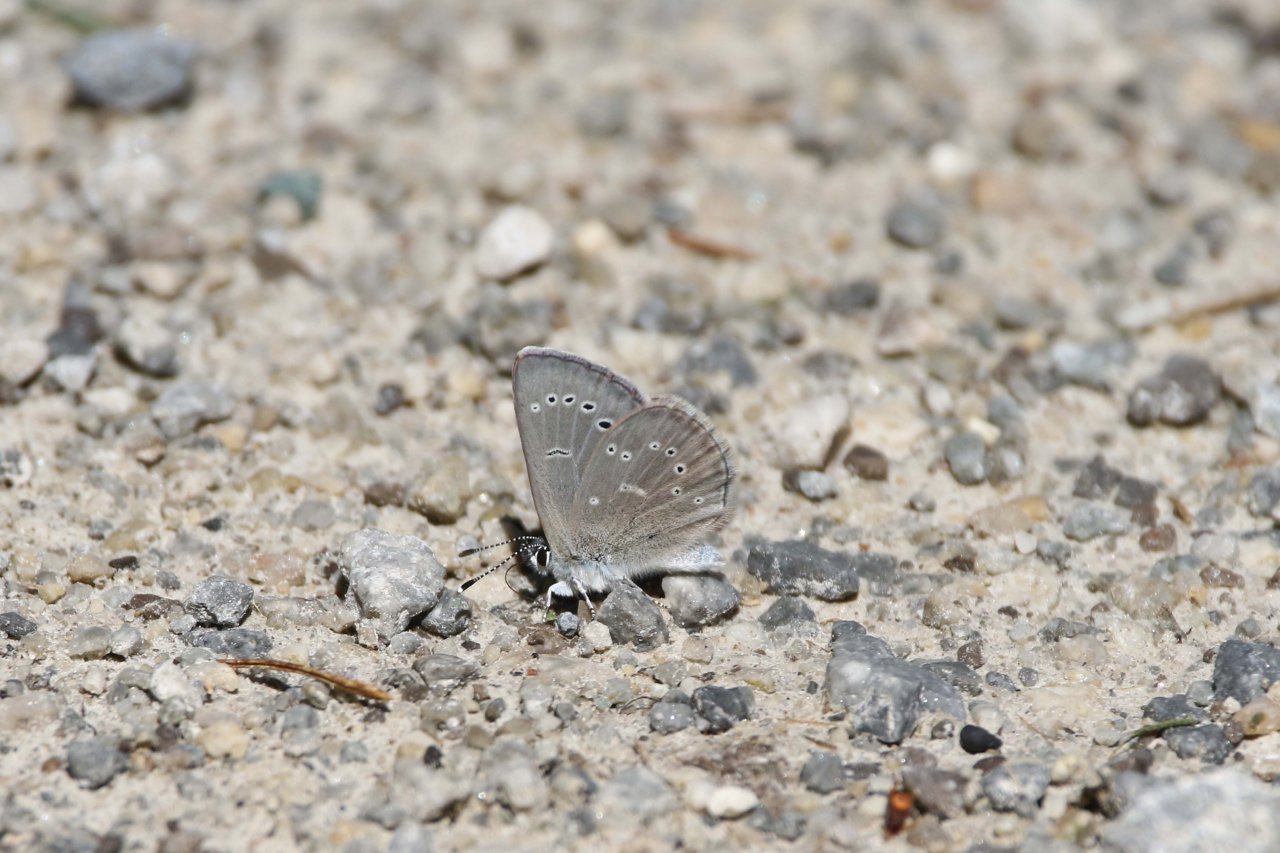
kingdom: Animalia
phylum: Arthropoda
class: Insecta
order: Lepidoptera
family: Lycaenidae
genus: Glaucopsyche
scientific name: Glaucopsyche lygdamus
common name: Silvery Blue
